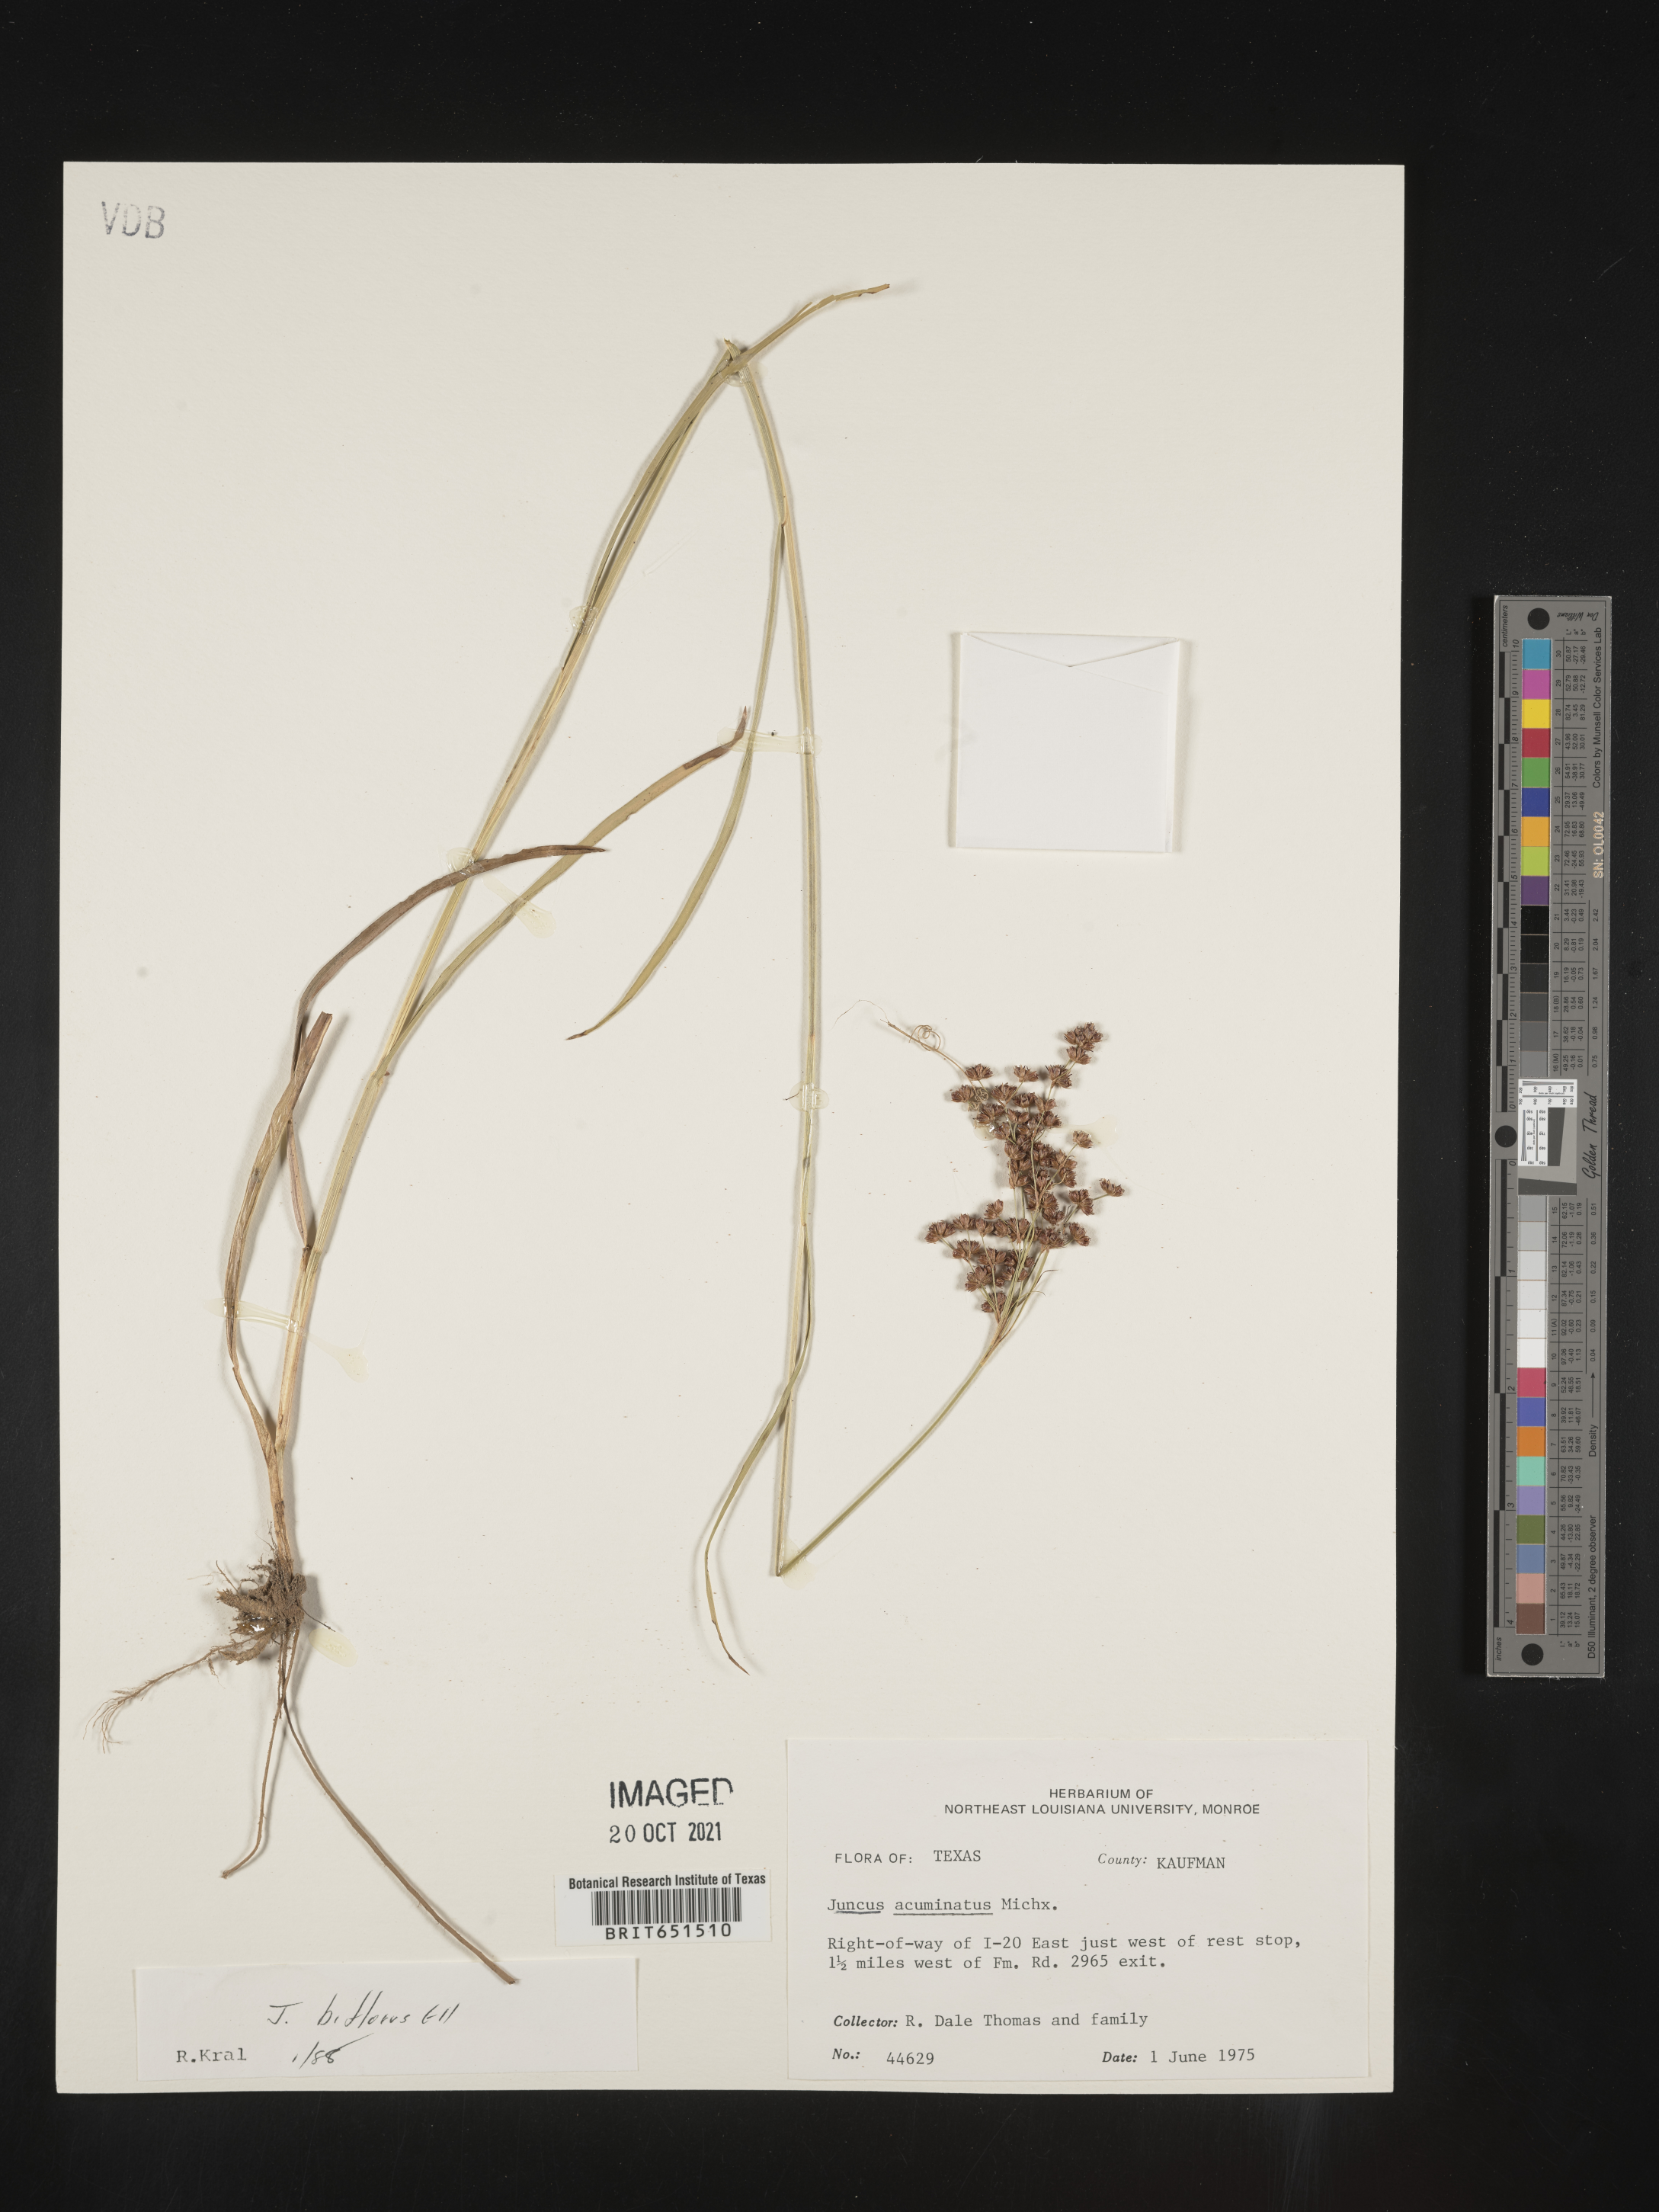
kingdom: Plantae
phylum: Tracheophyta
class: Liliopsida
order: Poales
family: Juncaceae
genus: Juncus
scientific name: Juncus biflorus
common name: Two-flowered rush
